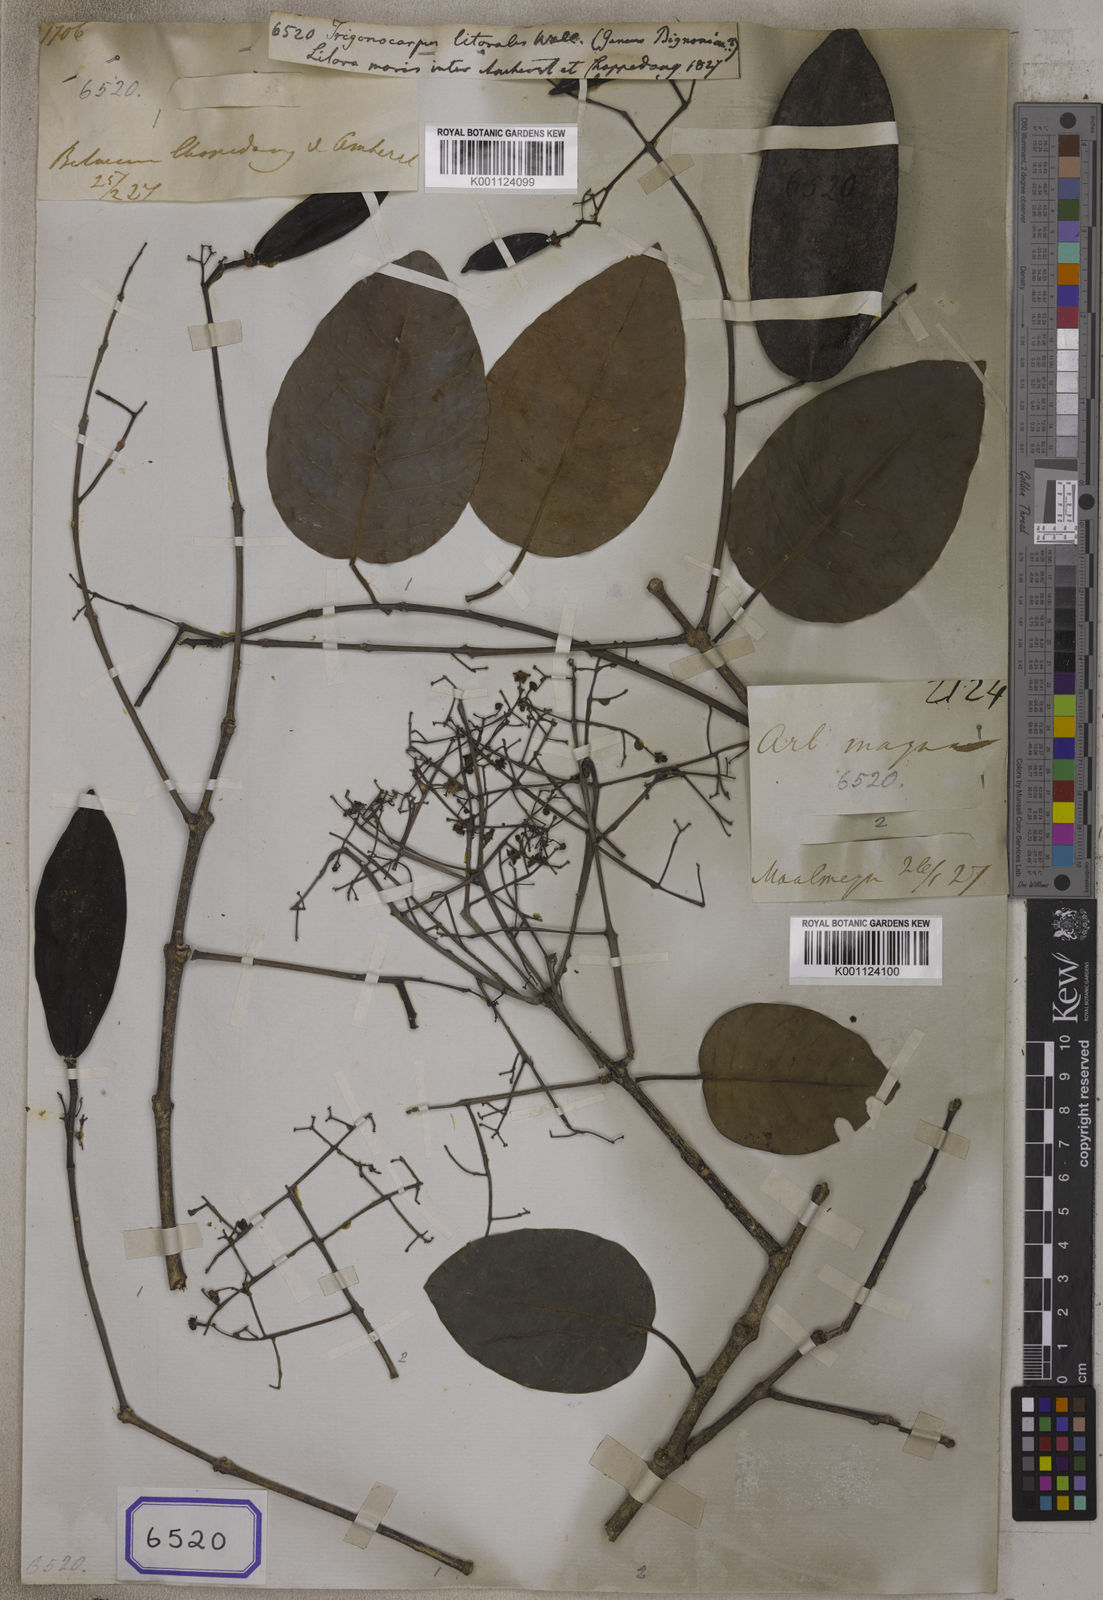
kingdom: Plantae
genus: Trigonocarpus
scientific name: Trigonocarpus
